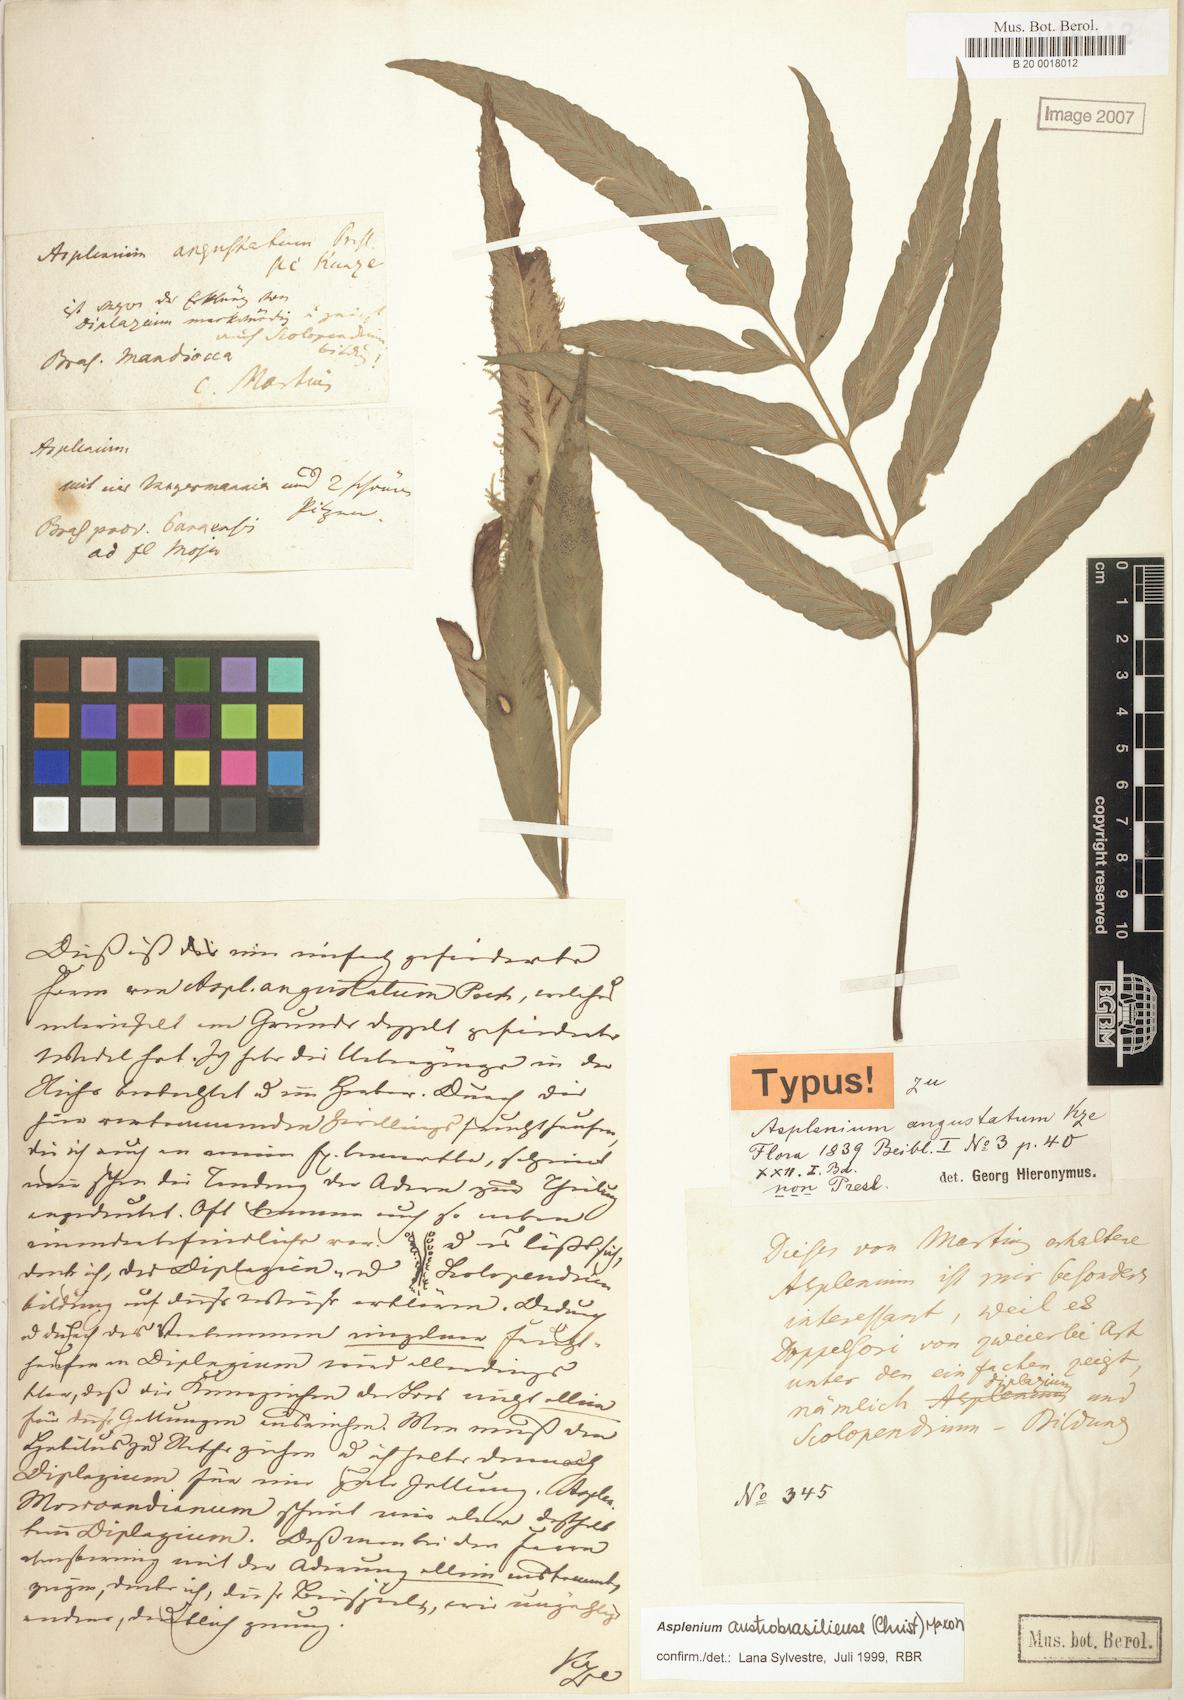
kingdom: Plantae
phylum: Tracheophyta
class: Polypodiopsida
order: Polypodiales
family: Aspleniaceae
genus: Asplenium
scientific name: Asplenium austrobrasiliense
